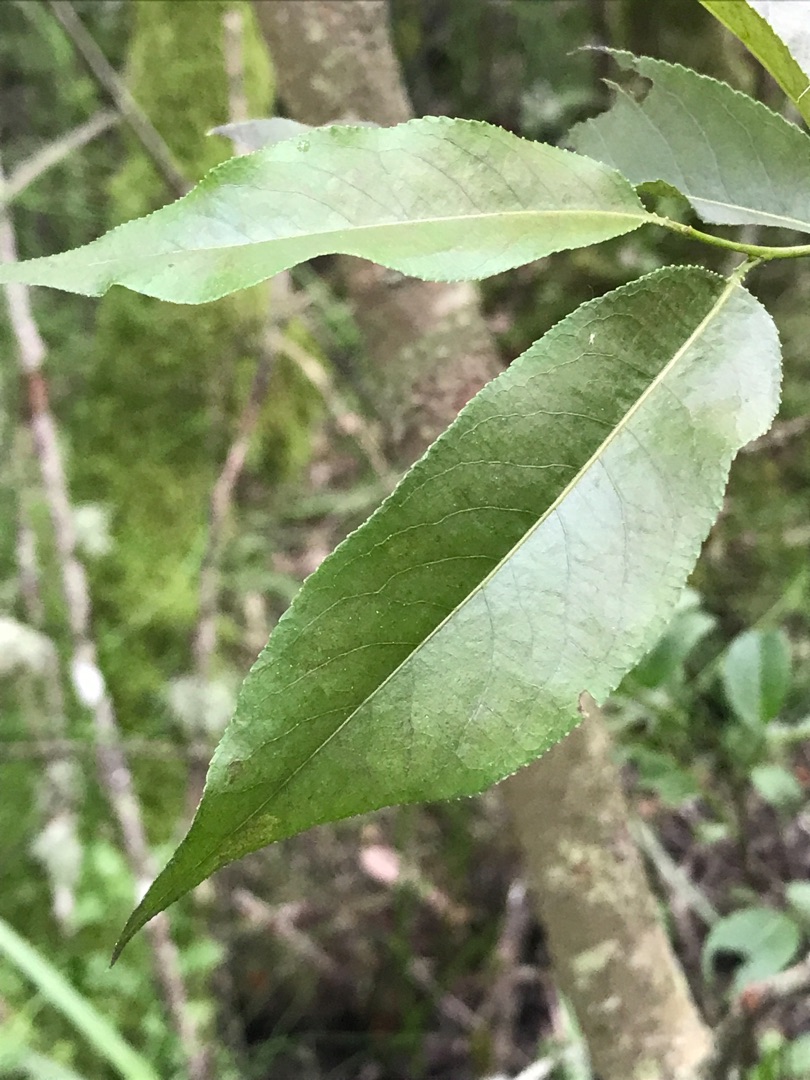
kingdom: Plantae
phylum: Tracheophyta
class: Magnoliopsida
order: Malpighiales
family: Salicaceae
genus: Salix
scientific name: Salix pentandra
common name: Femhannet pil
